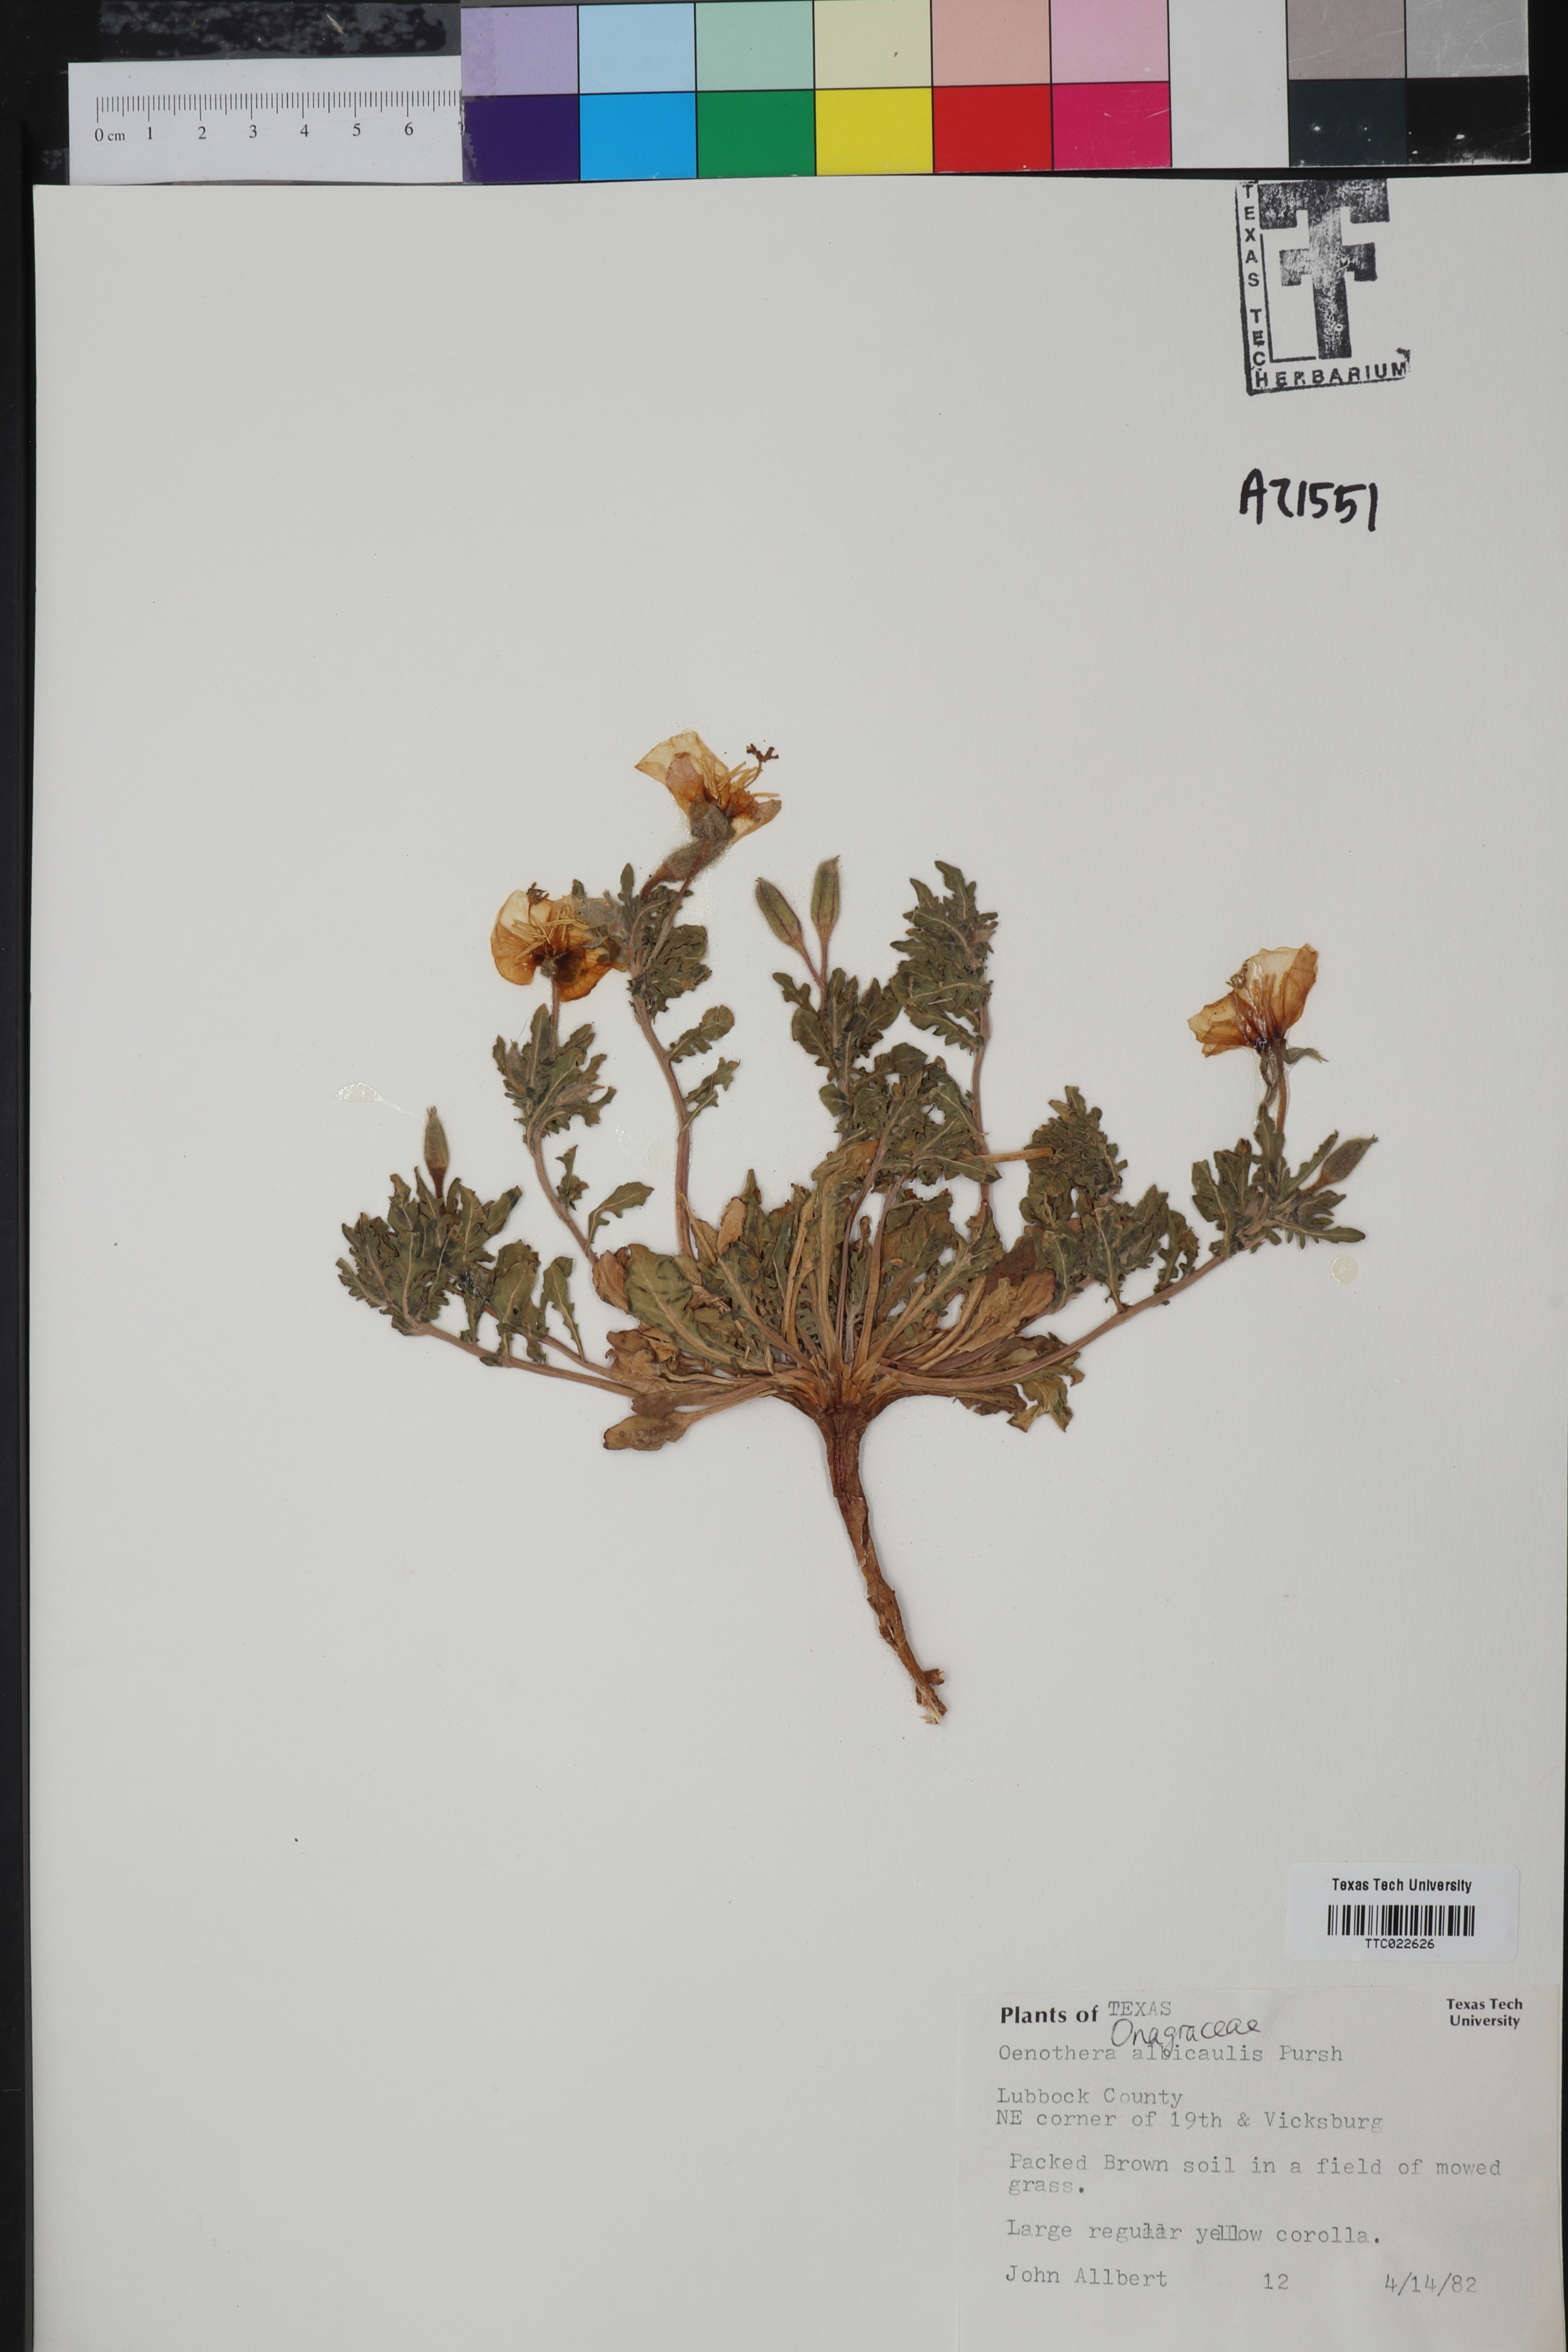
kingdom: Plantae
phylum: Tracheophyta
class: Magnoliopsida
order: Myrtales
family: Onagraceae
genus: Oenothera
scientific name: Oenothera albicaulis
